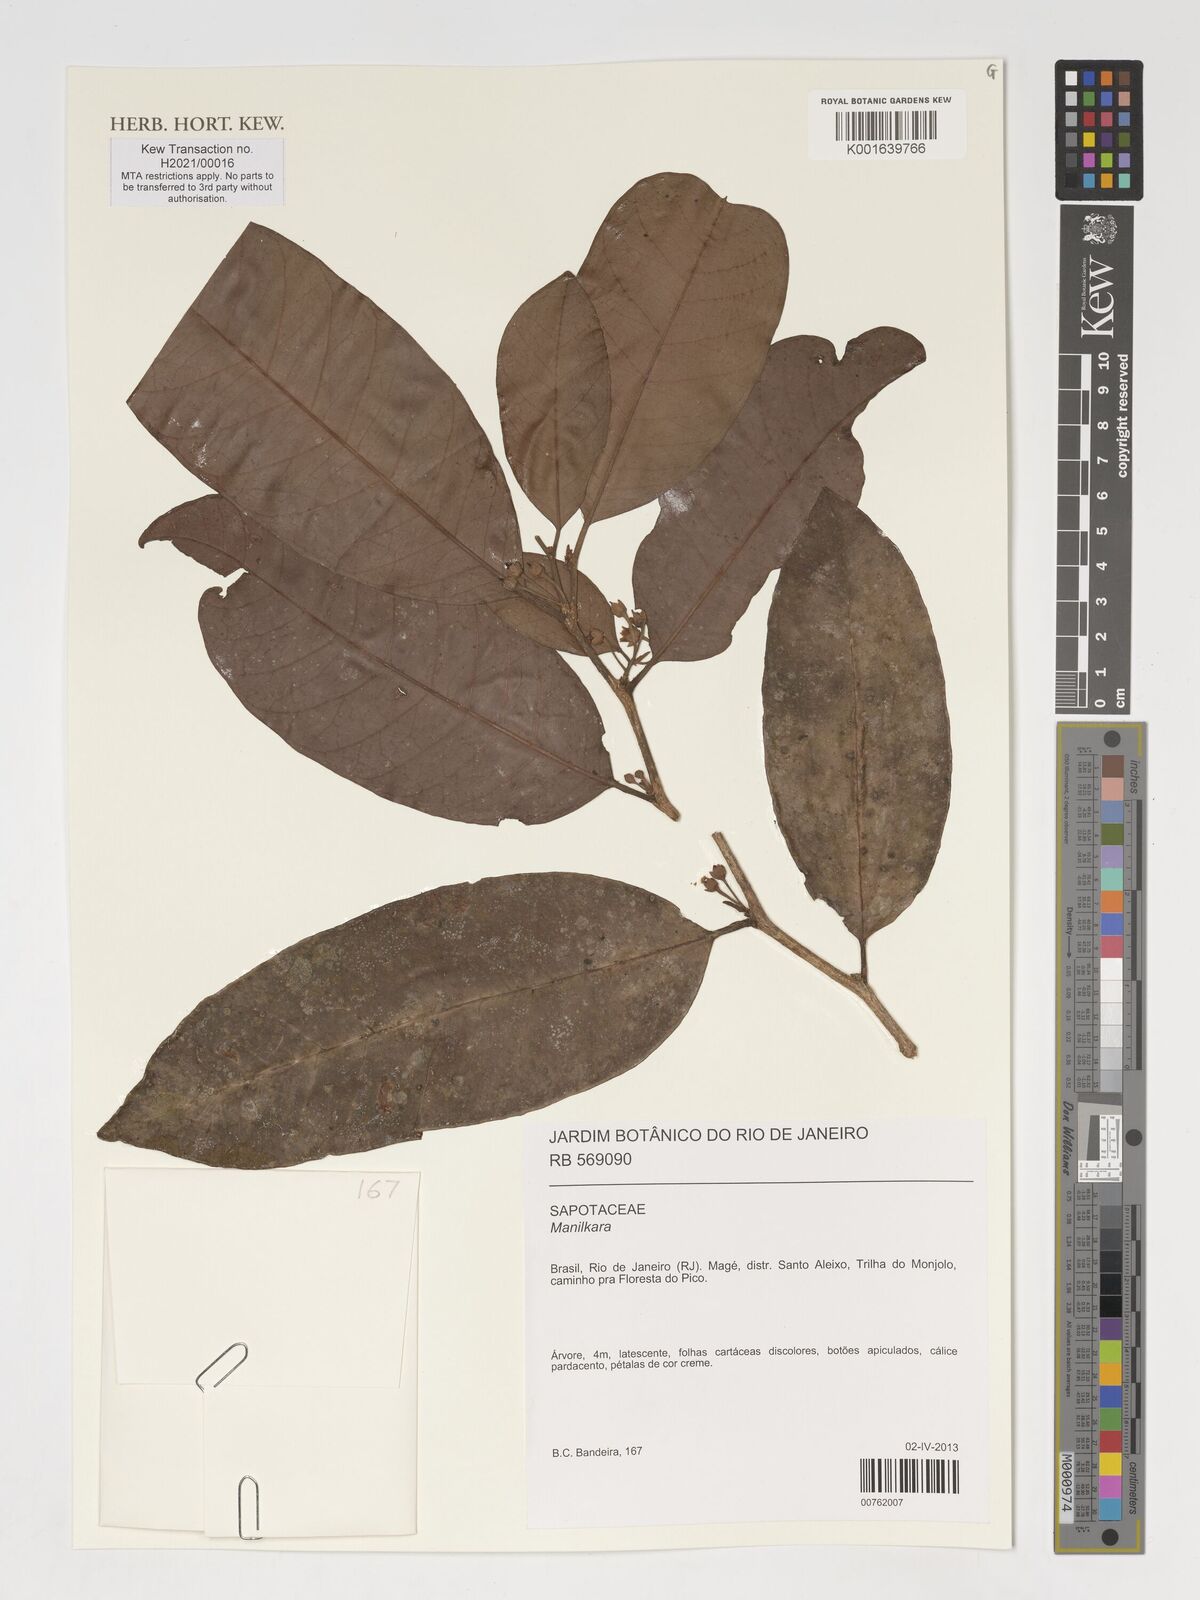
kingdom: Plantae
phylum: Tracheophyta
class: Magnoliopsida
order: Ericales
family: Sapotaceae
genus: Manilkara
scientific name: Manilkara
